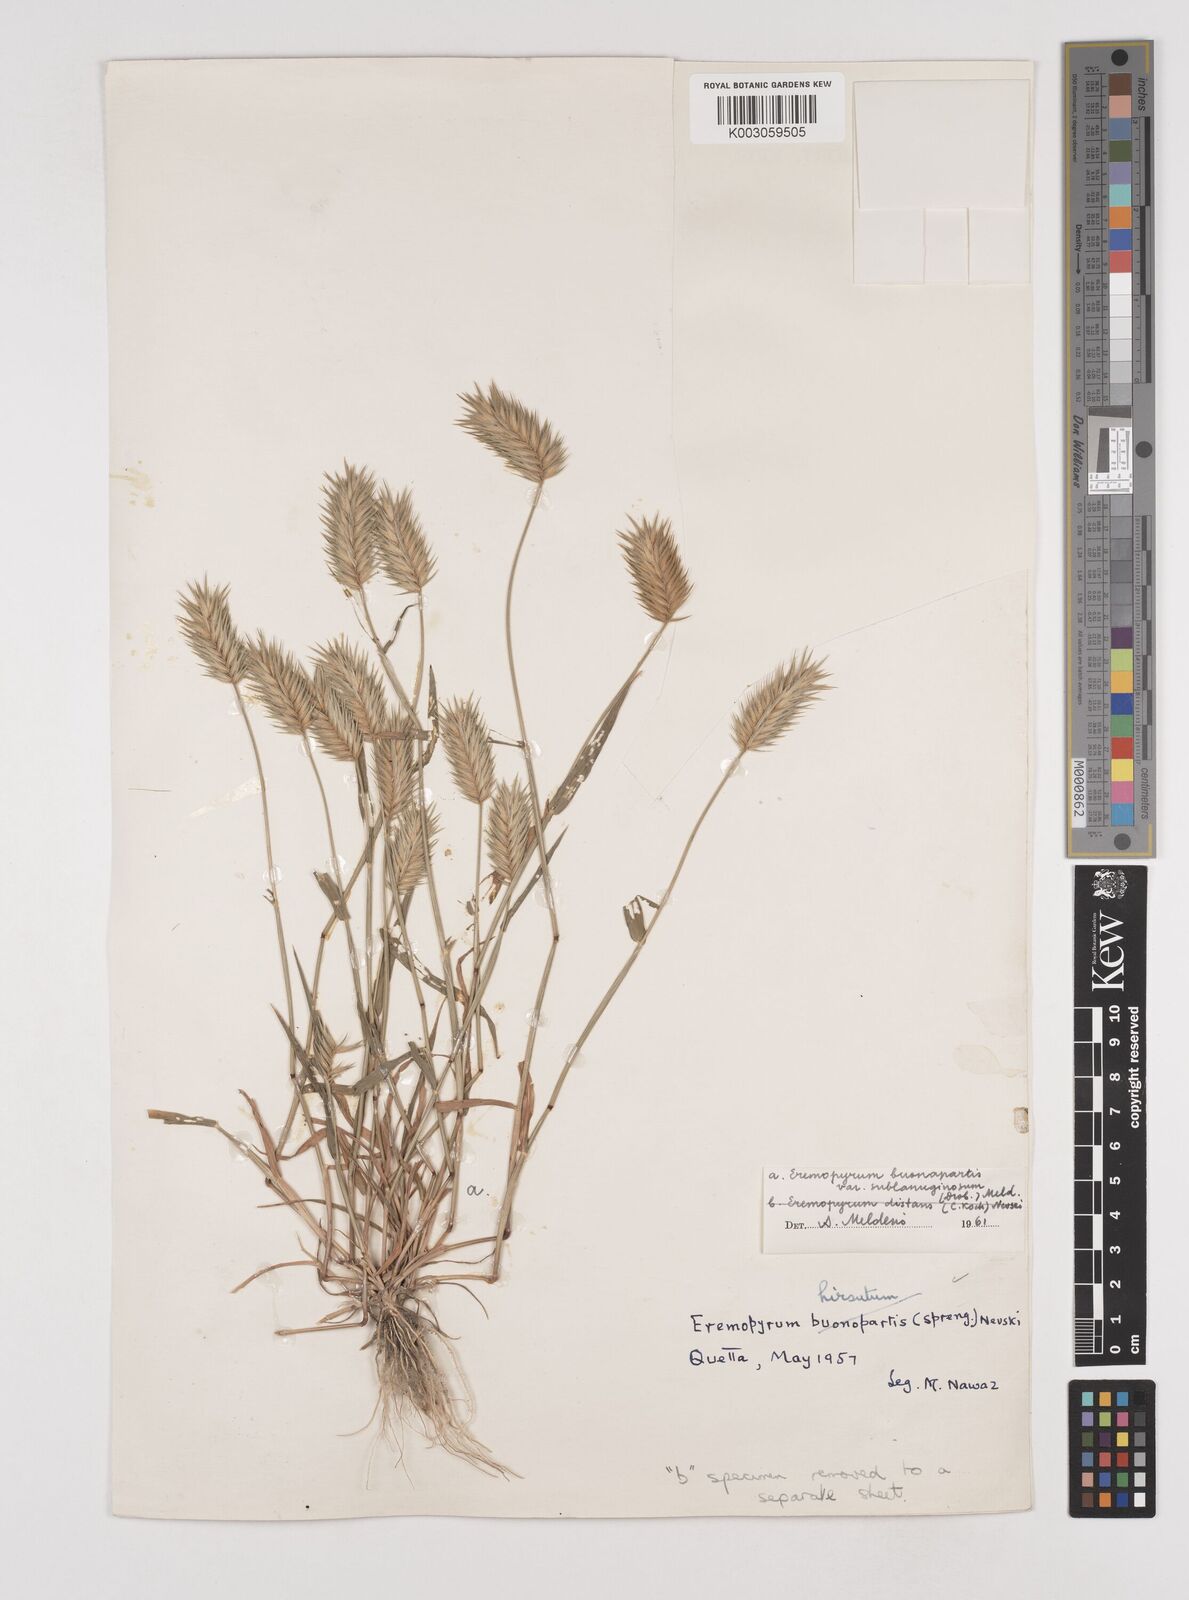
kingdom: Plantae
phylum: Tracheophyta
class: Liliopsida
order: Poales
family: Poaceae
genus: Eremopyrum
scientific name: Eremopyrum bonaepartis
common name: Tapertip false wheatgrass
